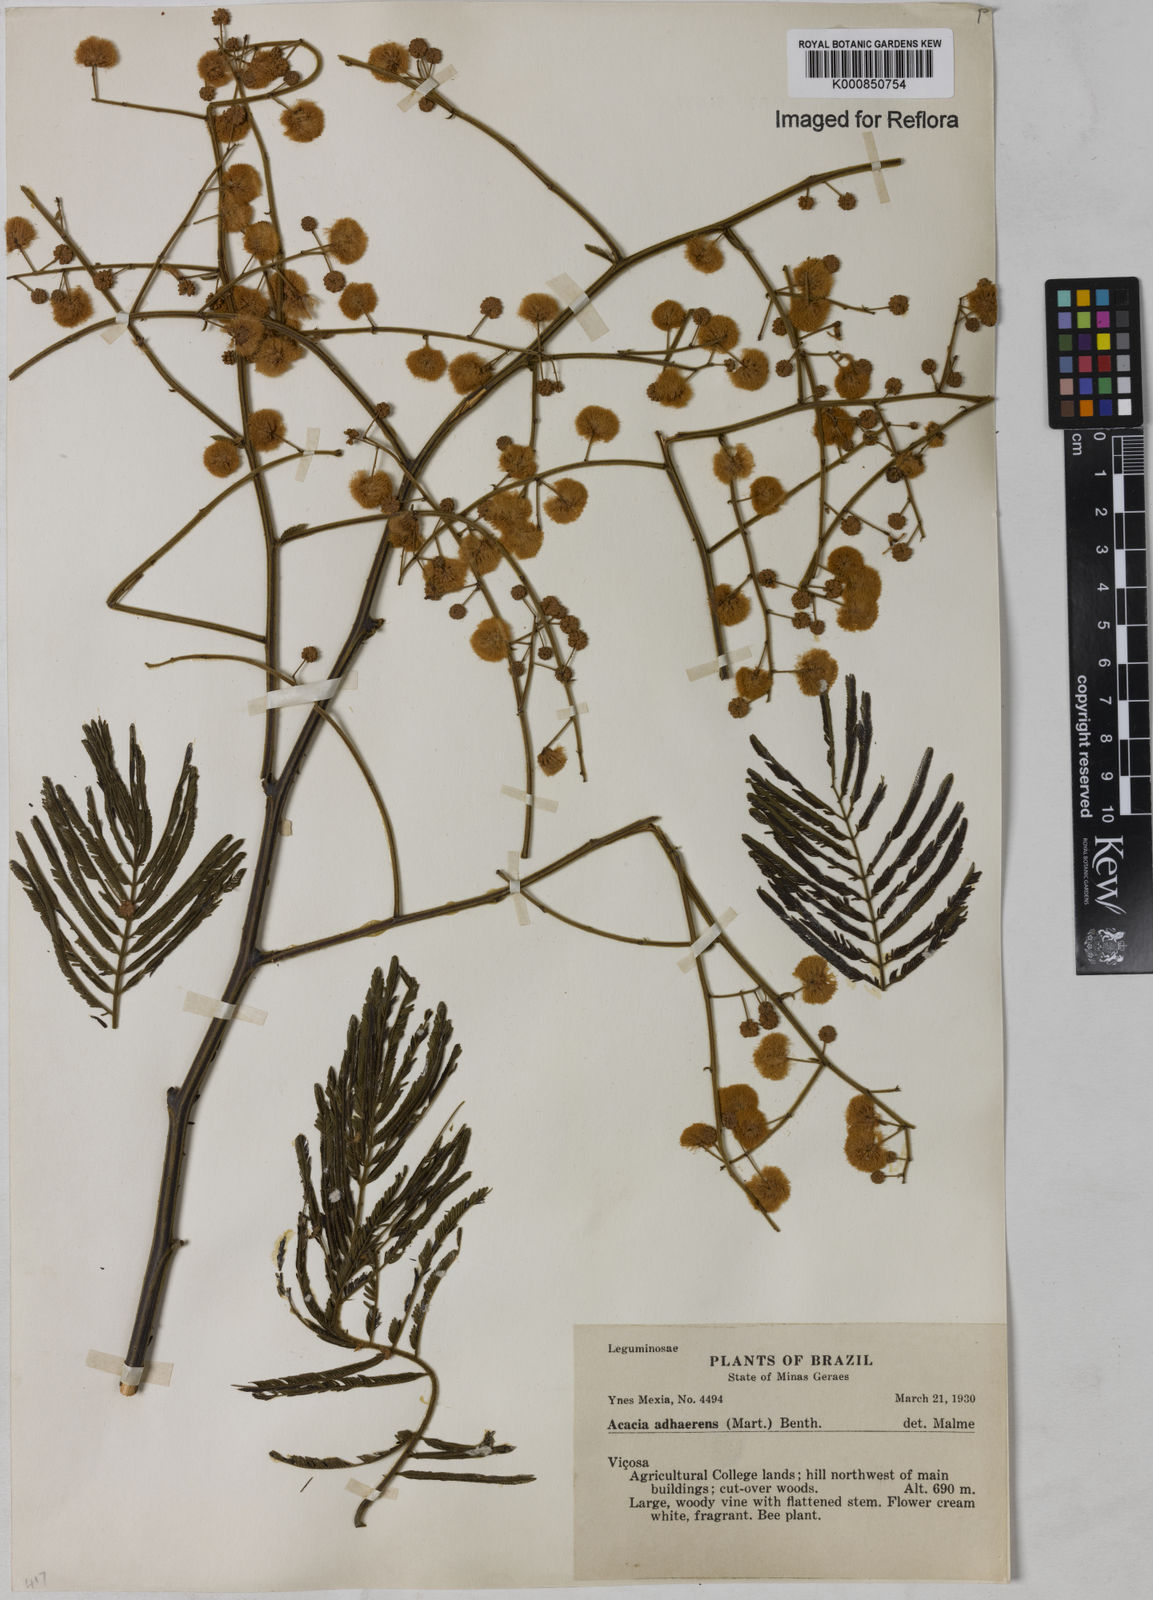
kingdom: Plantae
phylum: Tracheophyta
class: Magnoliopsida
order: Fabales
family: Fabaceae
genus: Senegalia
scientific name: Senegalia martiusiana
